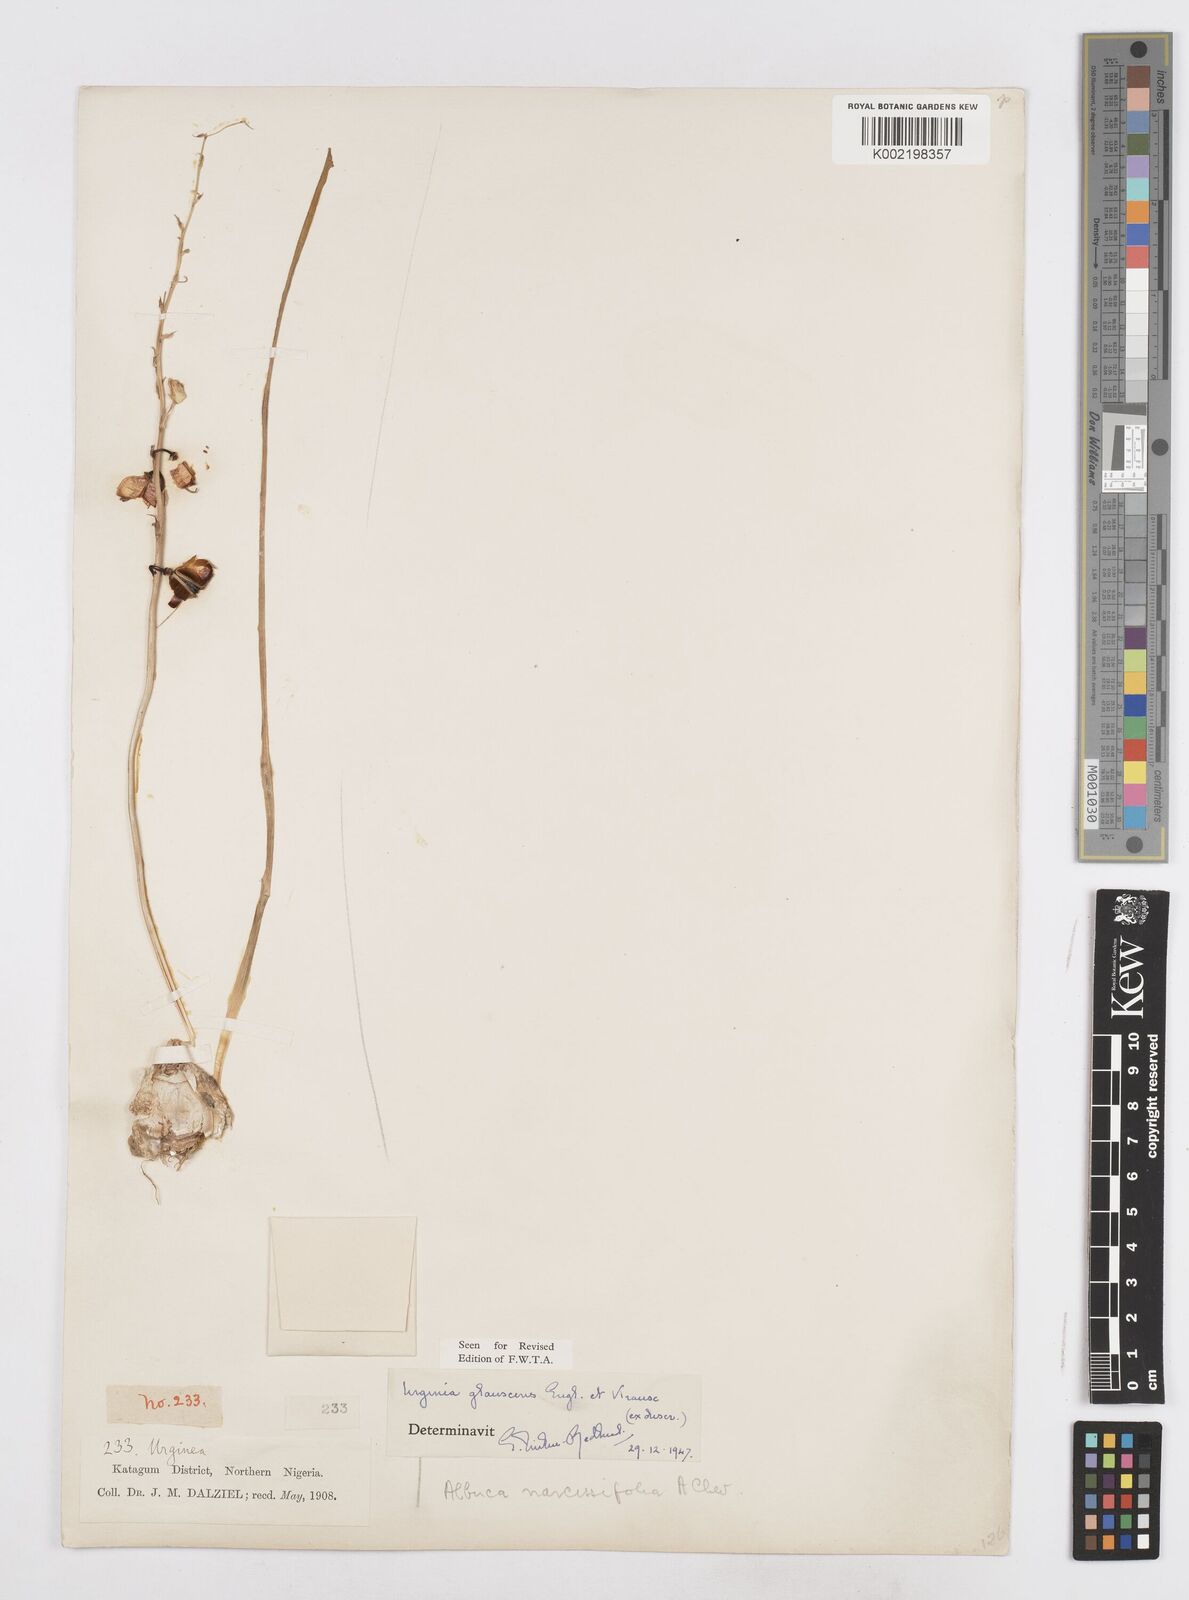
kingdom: Plantae
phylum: Tracheophyta
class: Liliopsida
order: Asparagales
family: Asparagaceae
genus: Ledebouria
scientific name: Ledebouria ensifolia
